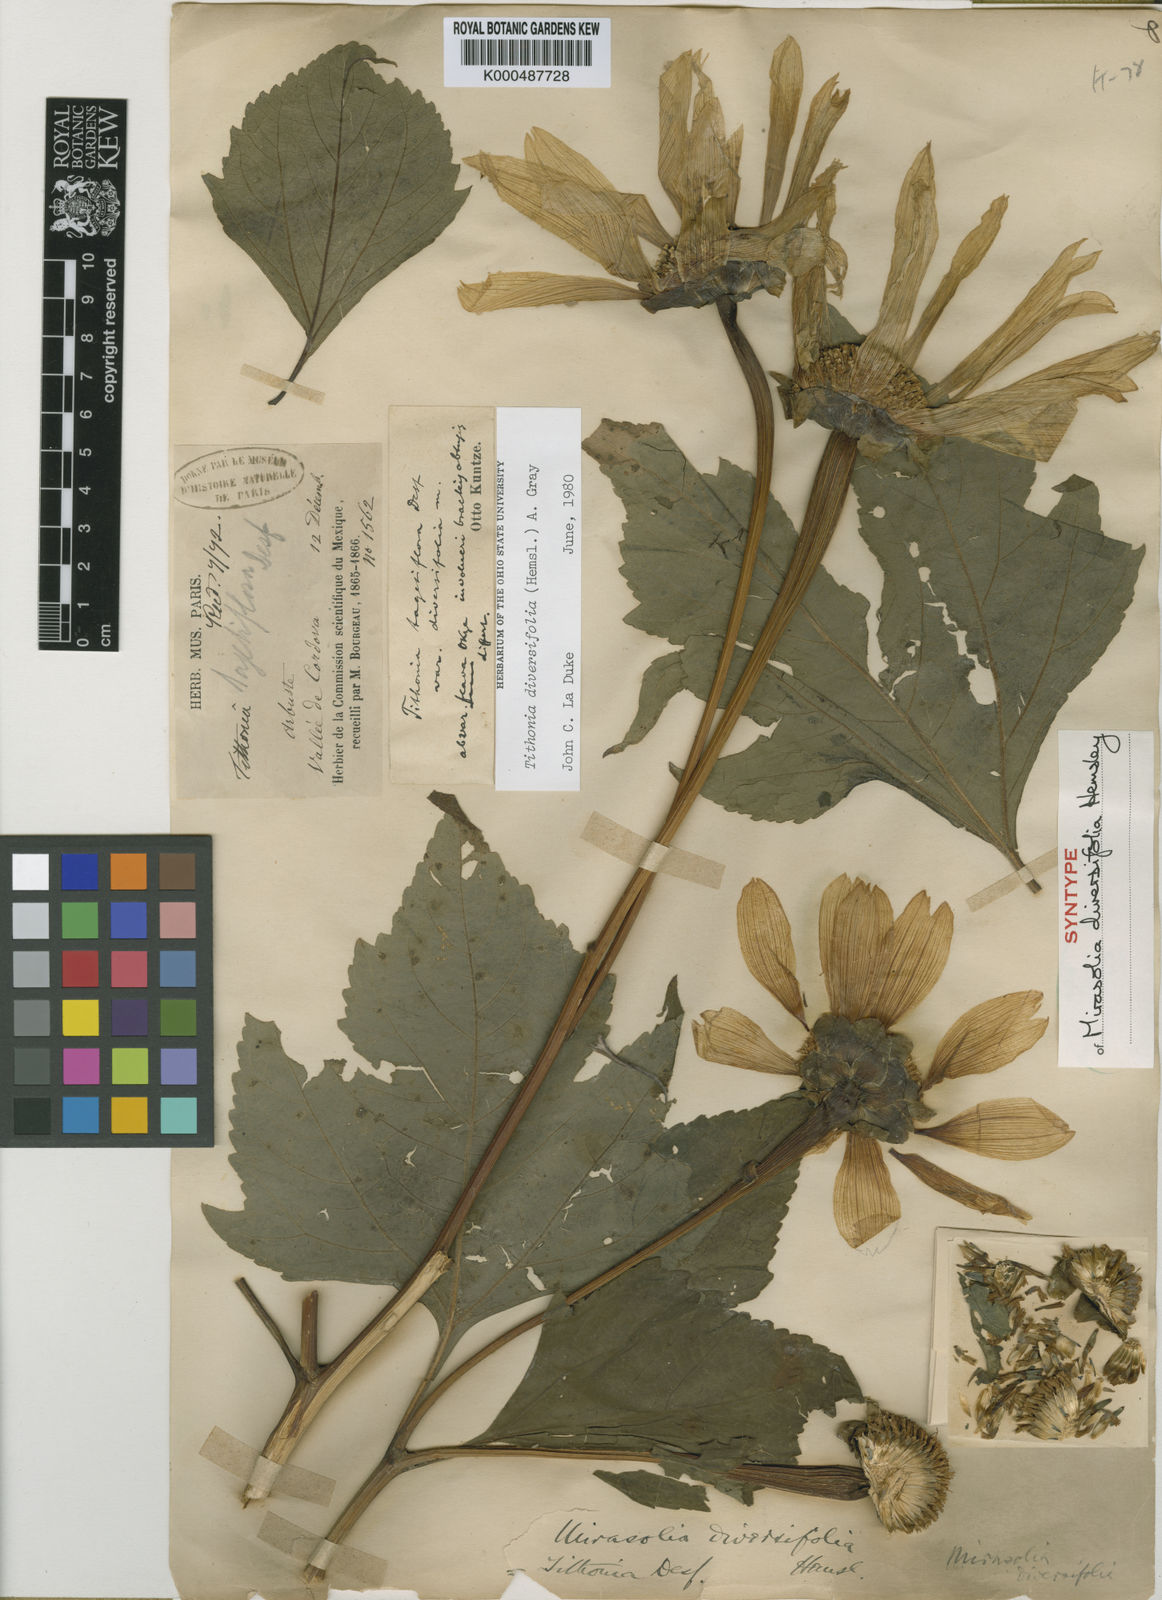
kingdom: Plantae
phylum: Tracheophyta
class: Magnoliopsida
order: Asterales
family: Asteraceae
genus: Tithonia
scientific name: Tithonia diversifolia
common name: Tree marigold
